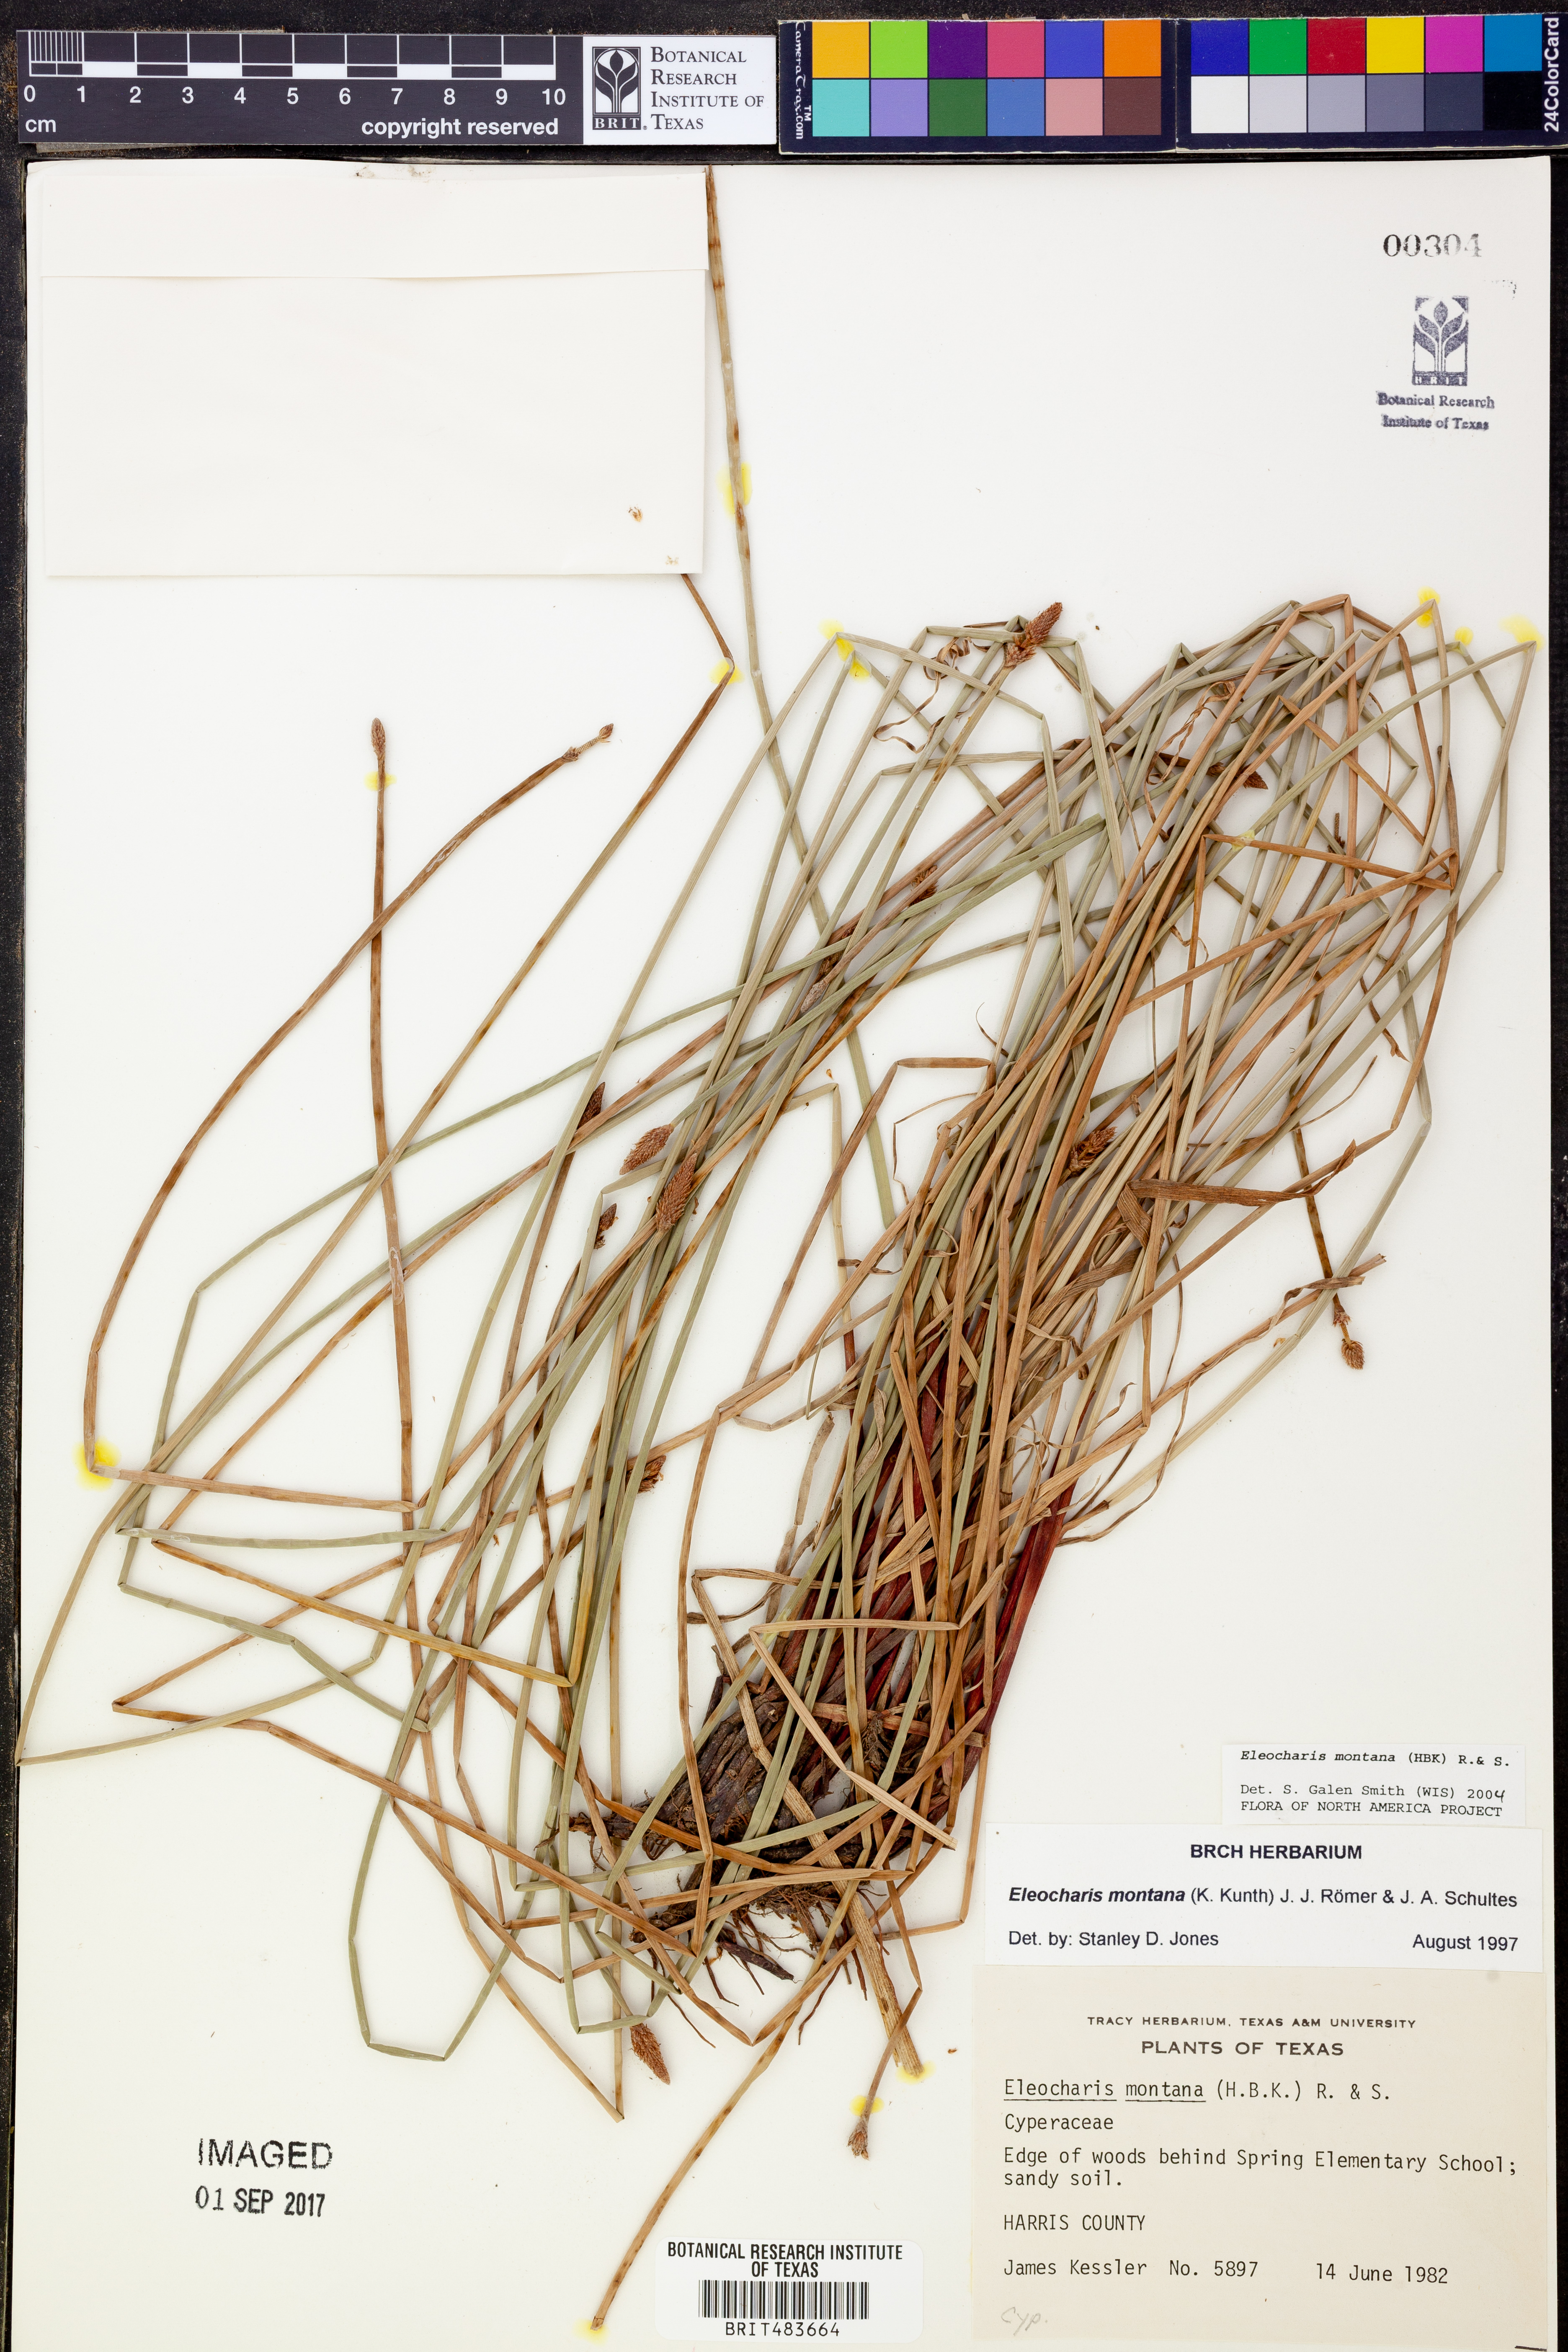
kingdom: Plantae
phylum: Tracheophyta
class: Liliopsida
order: Poales
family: Cyperaceae
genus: Eleocharis
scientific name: Eleocharis montana
